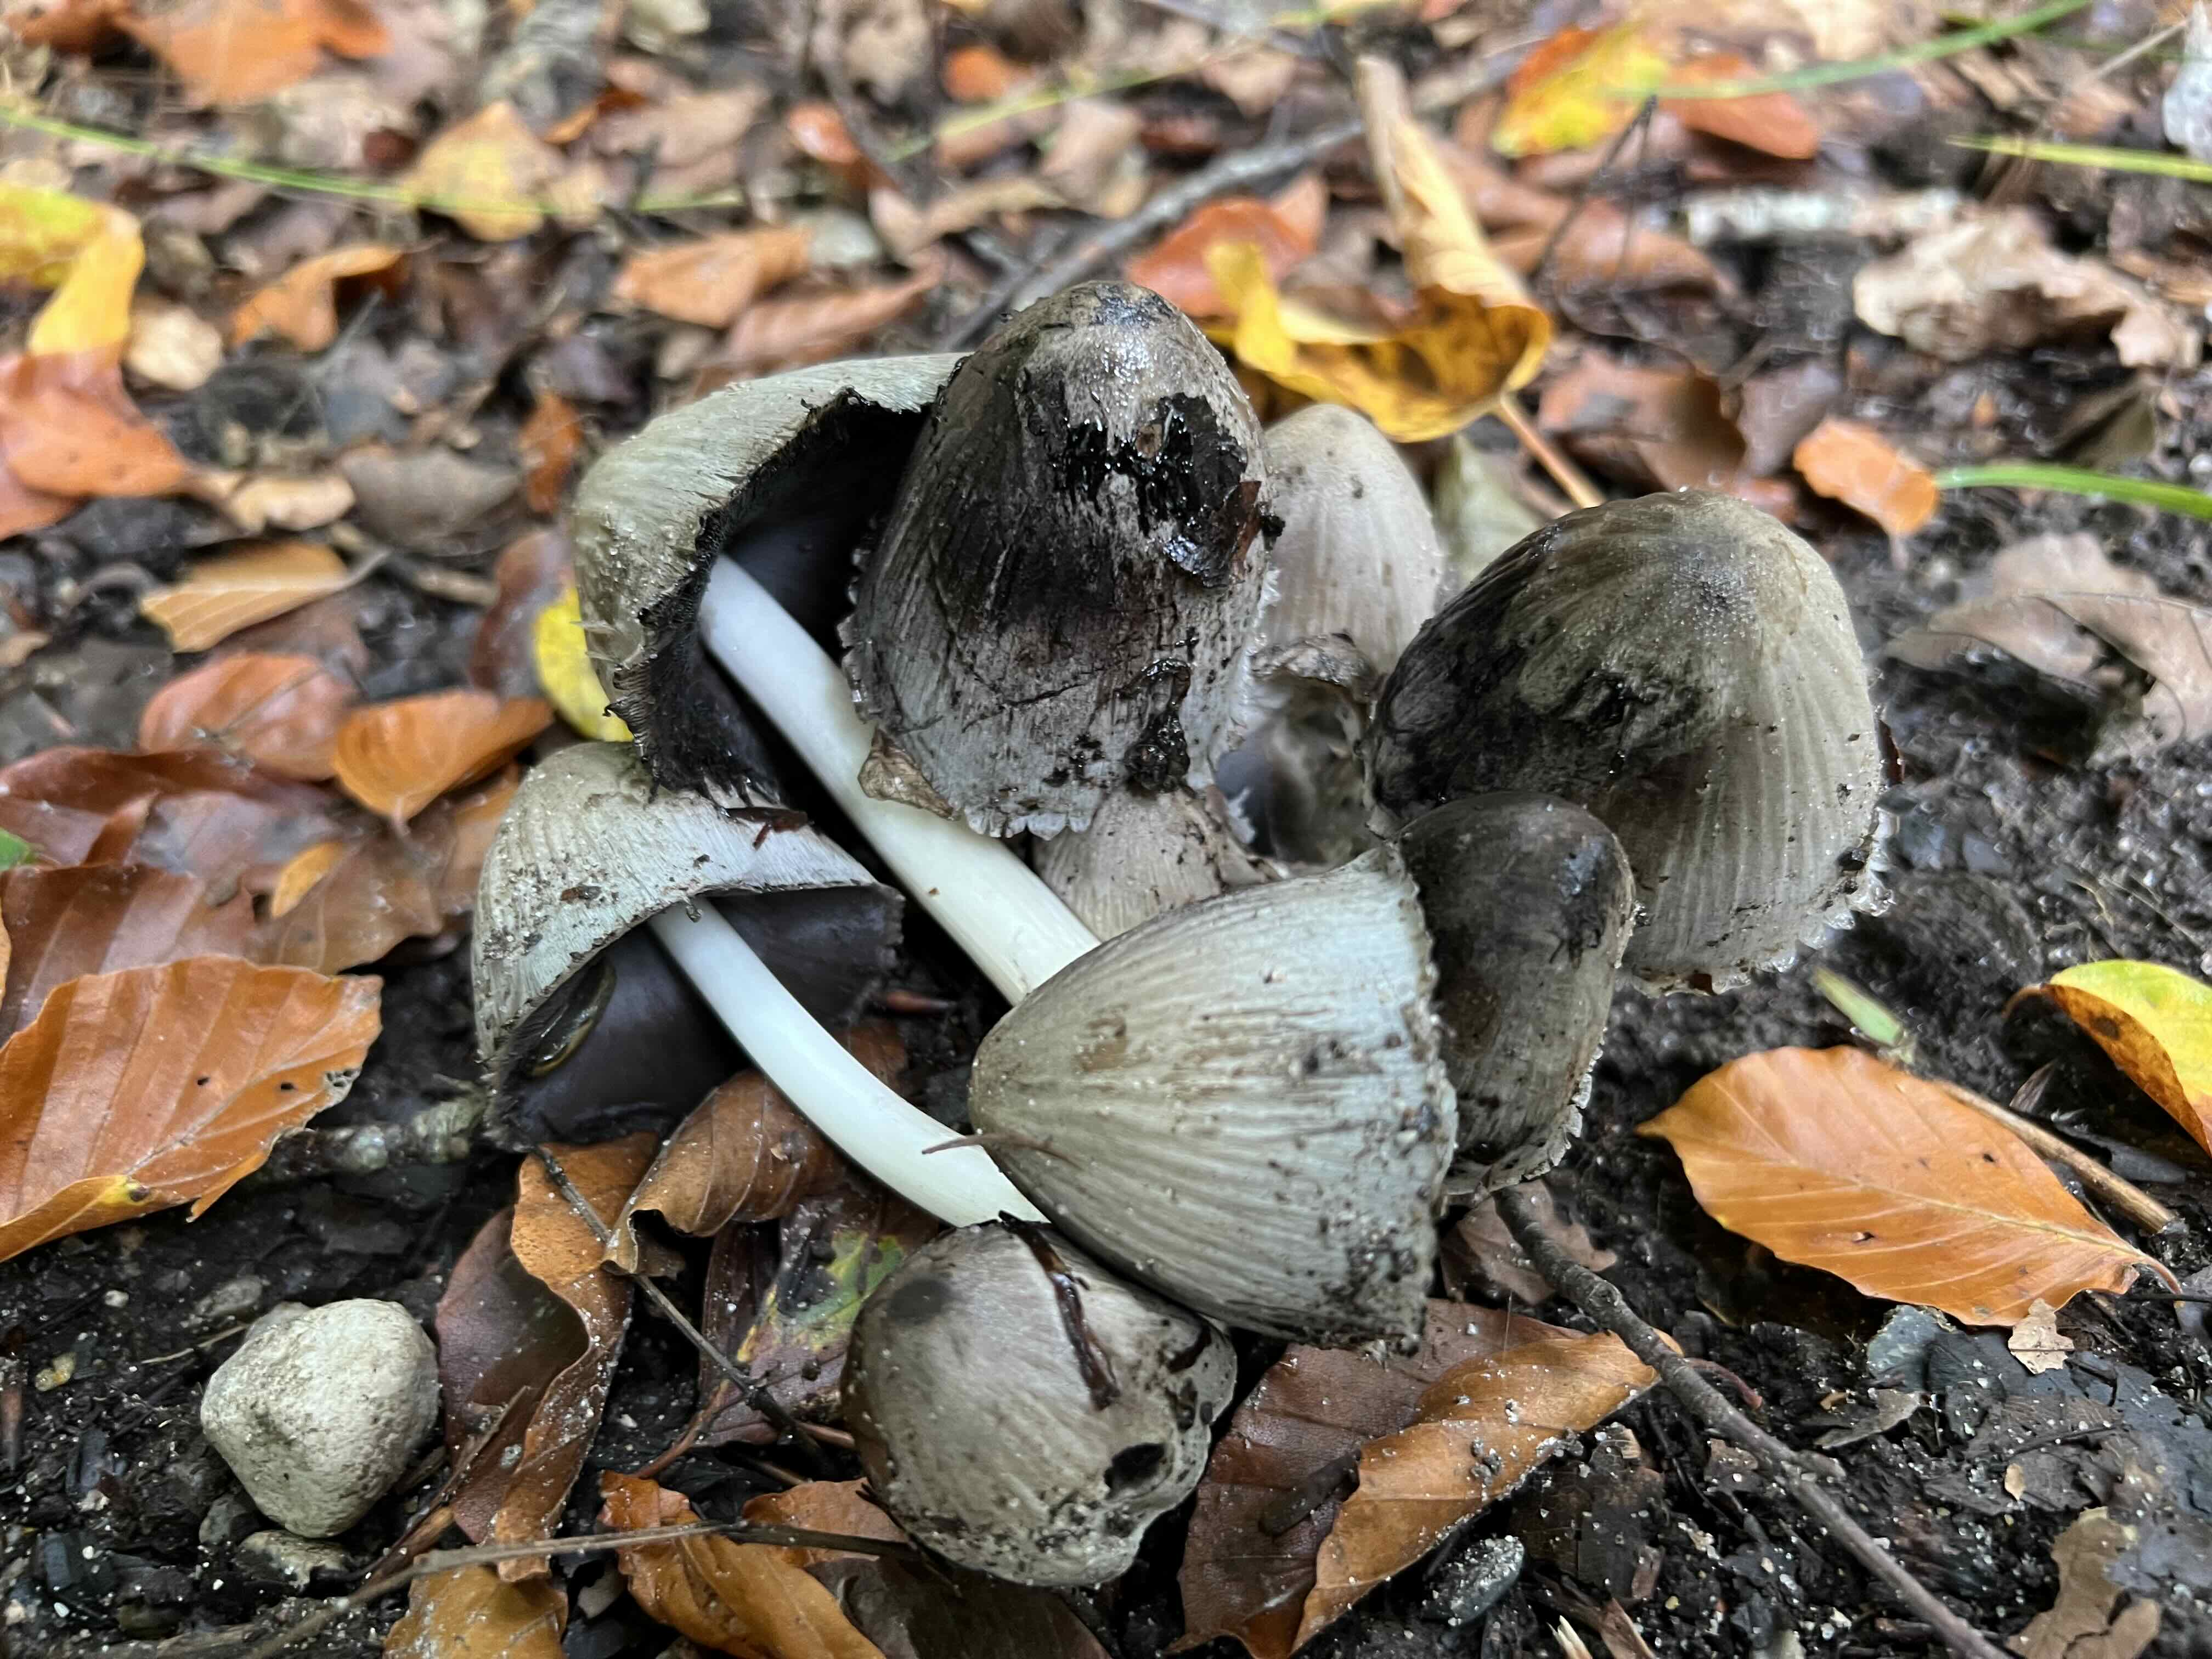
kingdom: Fungi
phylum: Basidiomycota
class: Agaricomycetes
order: Agaricales
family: Psathyrellaceae
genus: Coprinopsis
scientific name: Coprinopsis atramentaria
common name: almindelig blækhat
